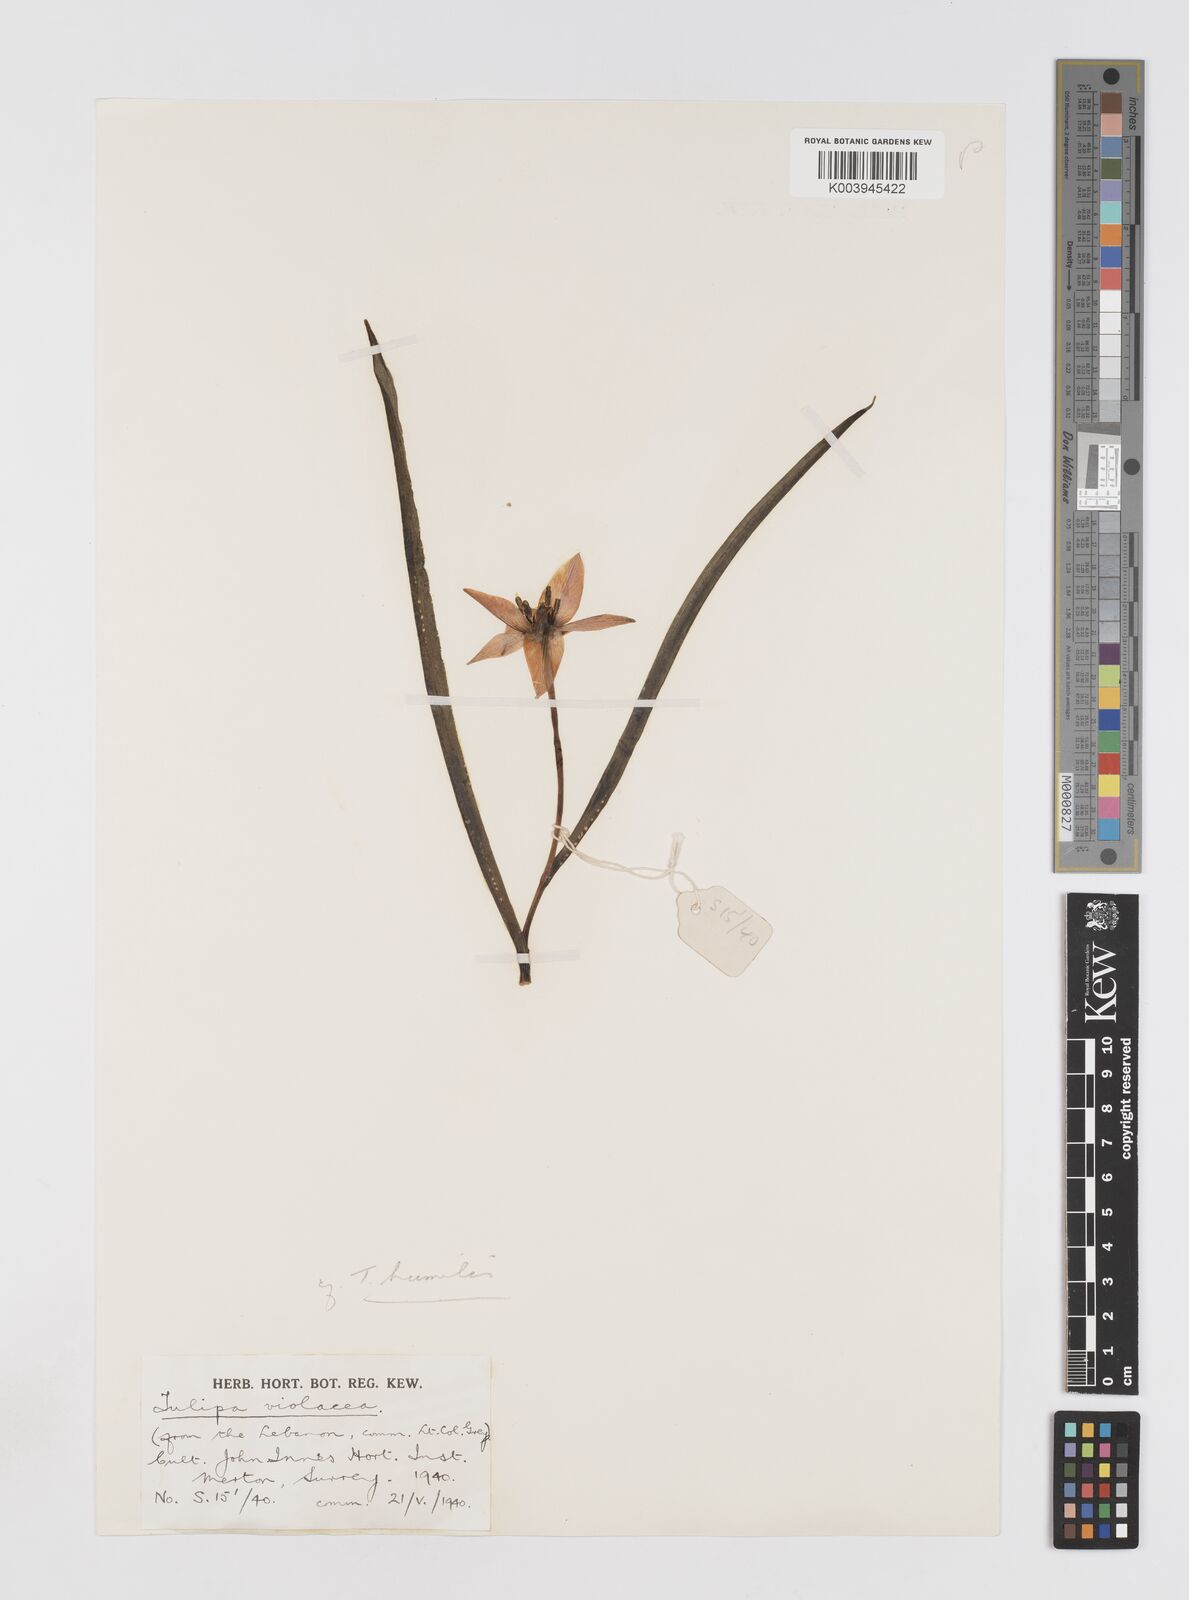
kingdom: Plantae
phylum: Tracheophyta
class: Liliopsida
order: Liliales
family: Liliaceae
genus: Tulipa
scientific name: Tulipa humilis
